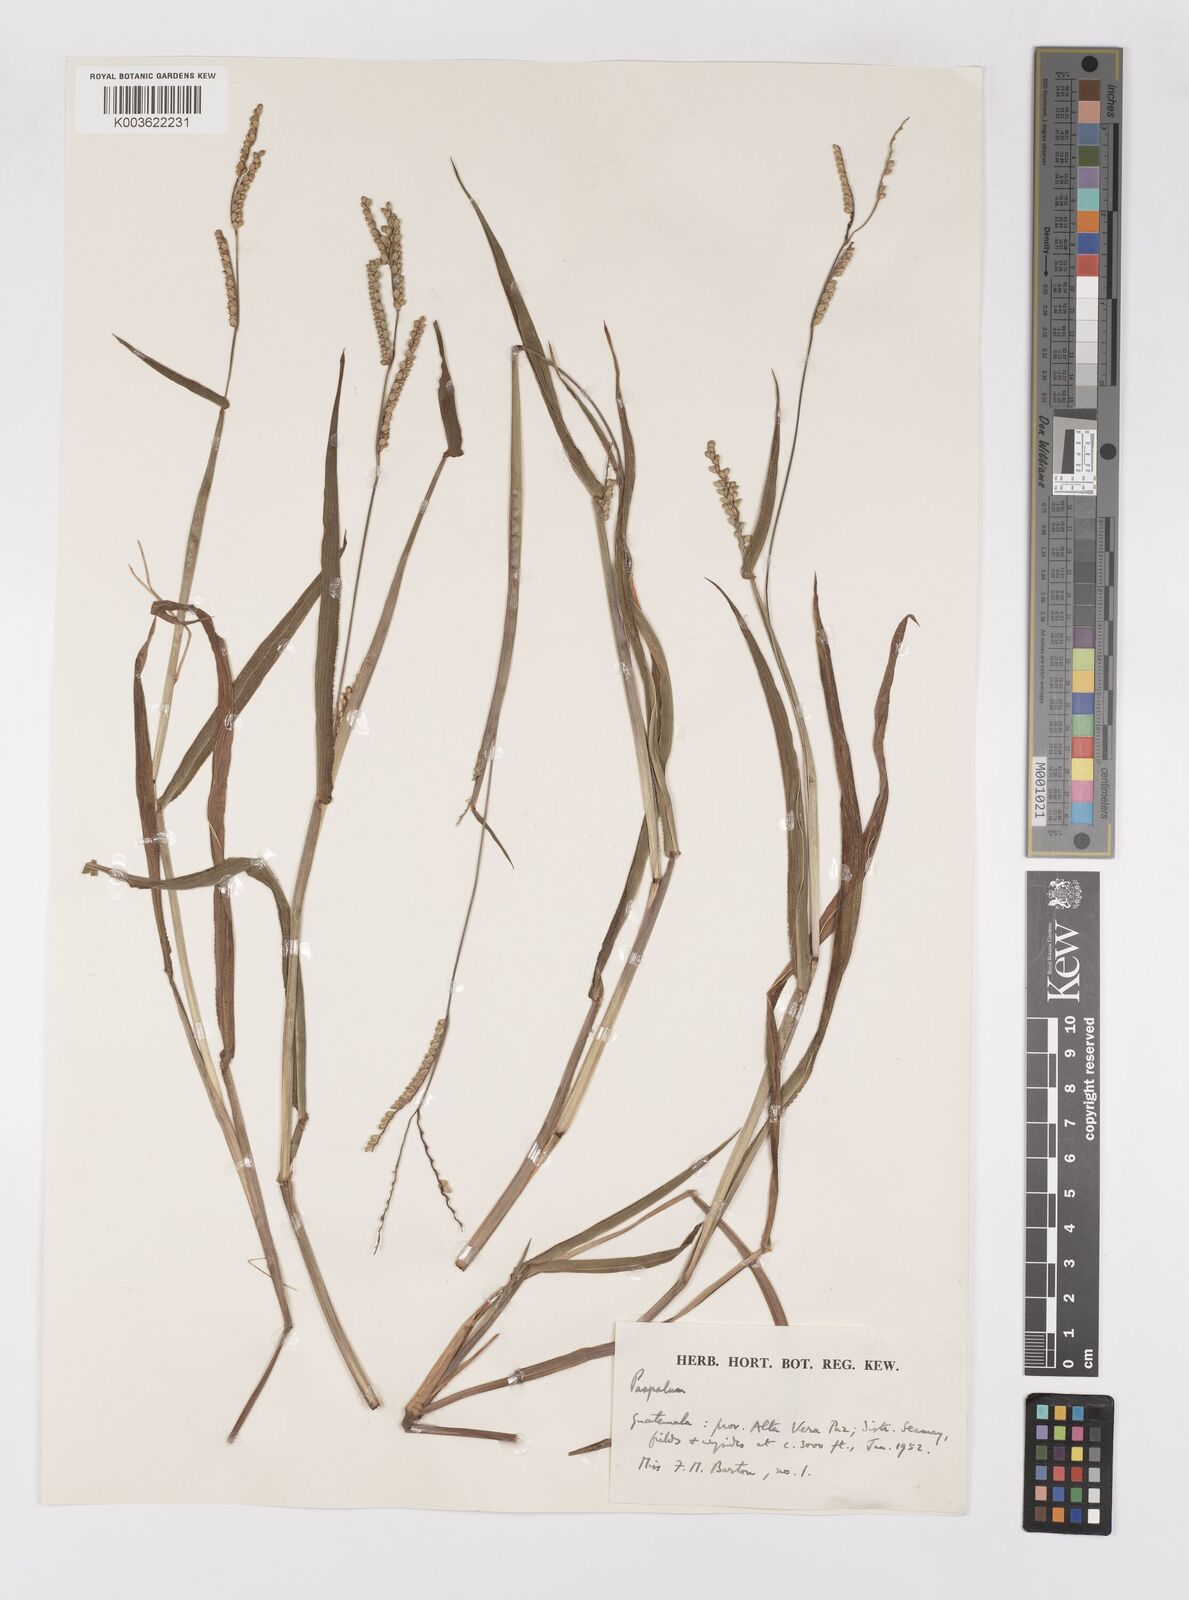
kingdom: Plantae
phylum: Tracheophyta
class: Liliopsida
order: Poales
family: Poaceae
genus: Paspalum
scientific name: Paspalum
